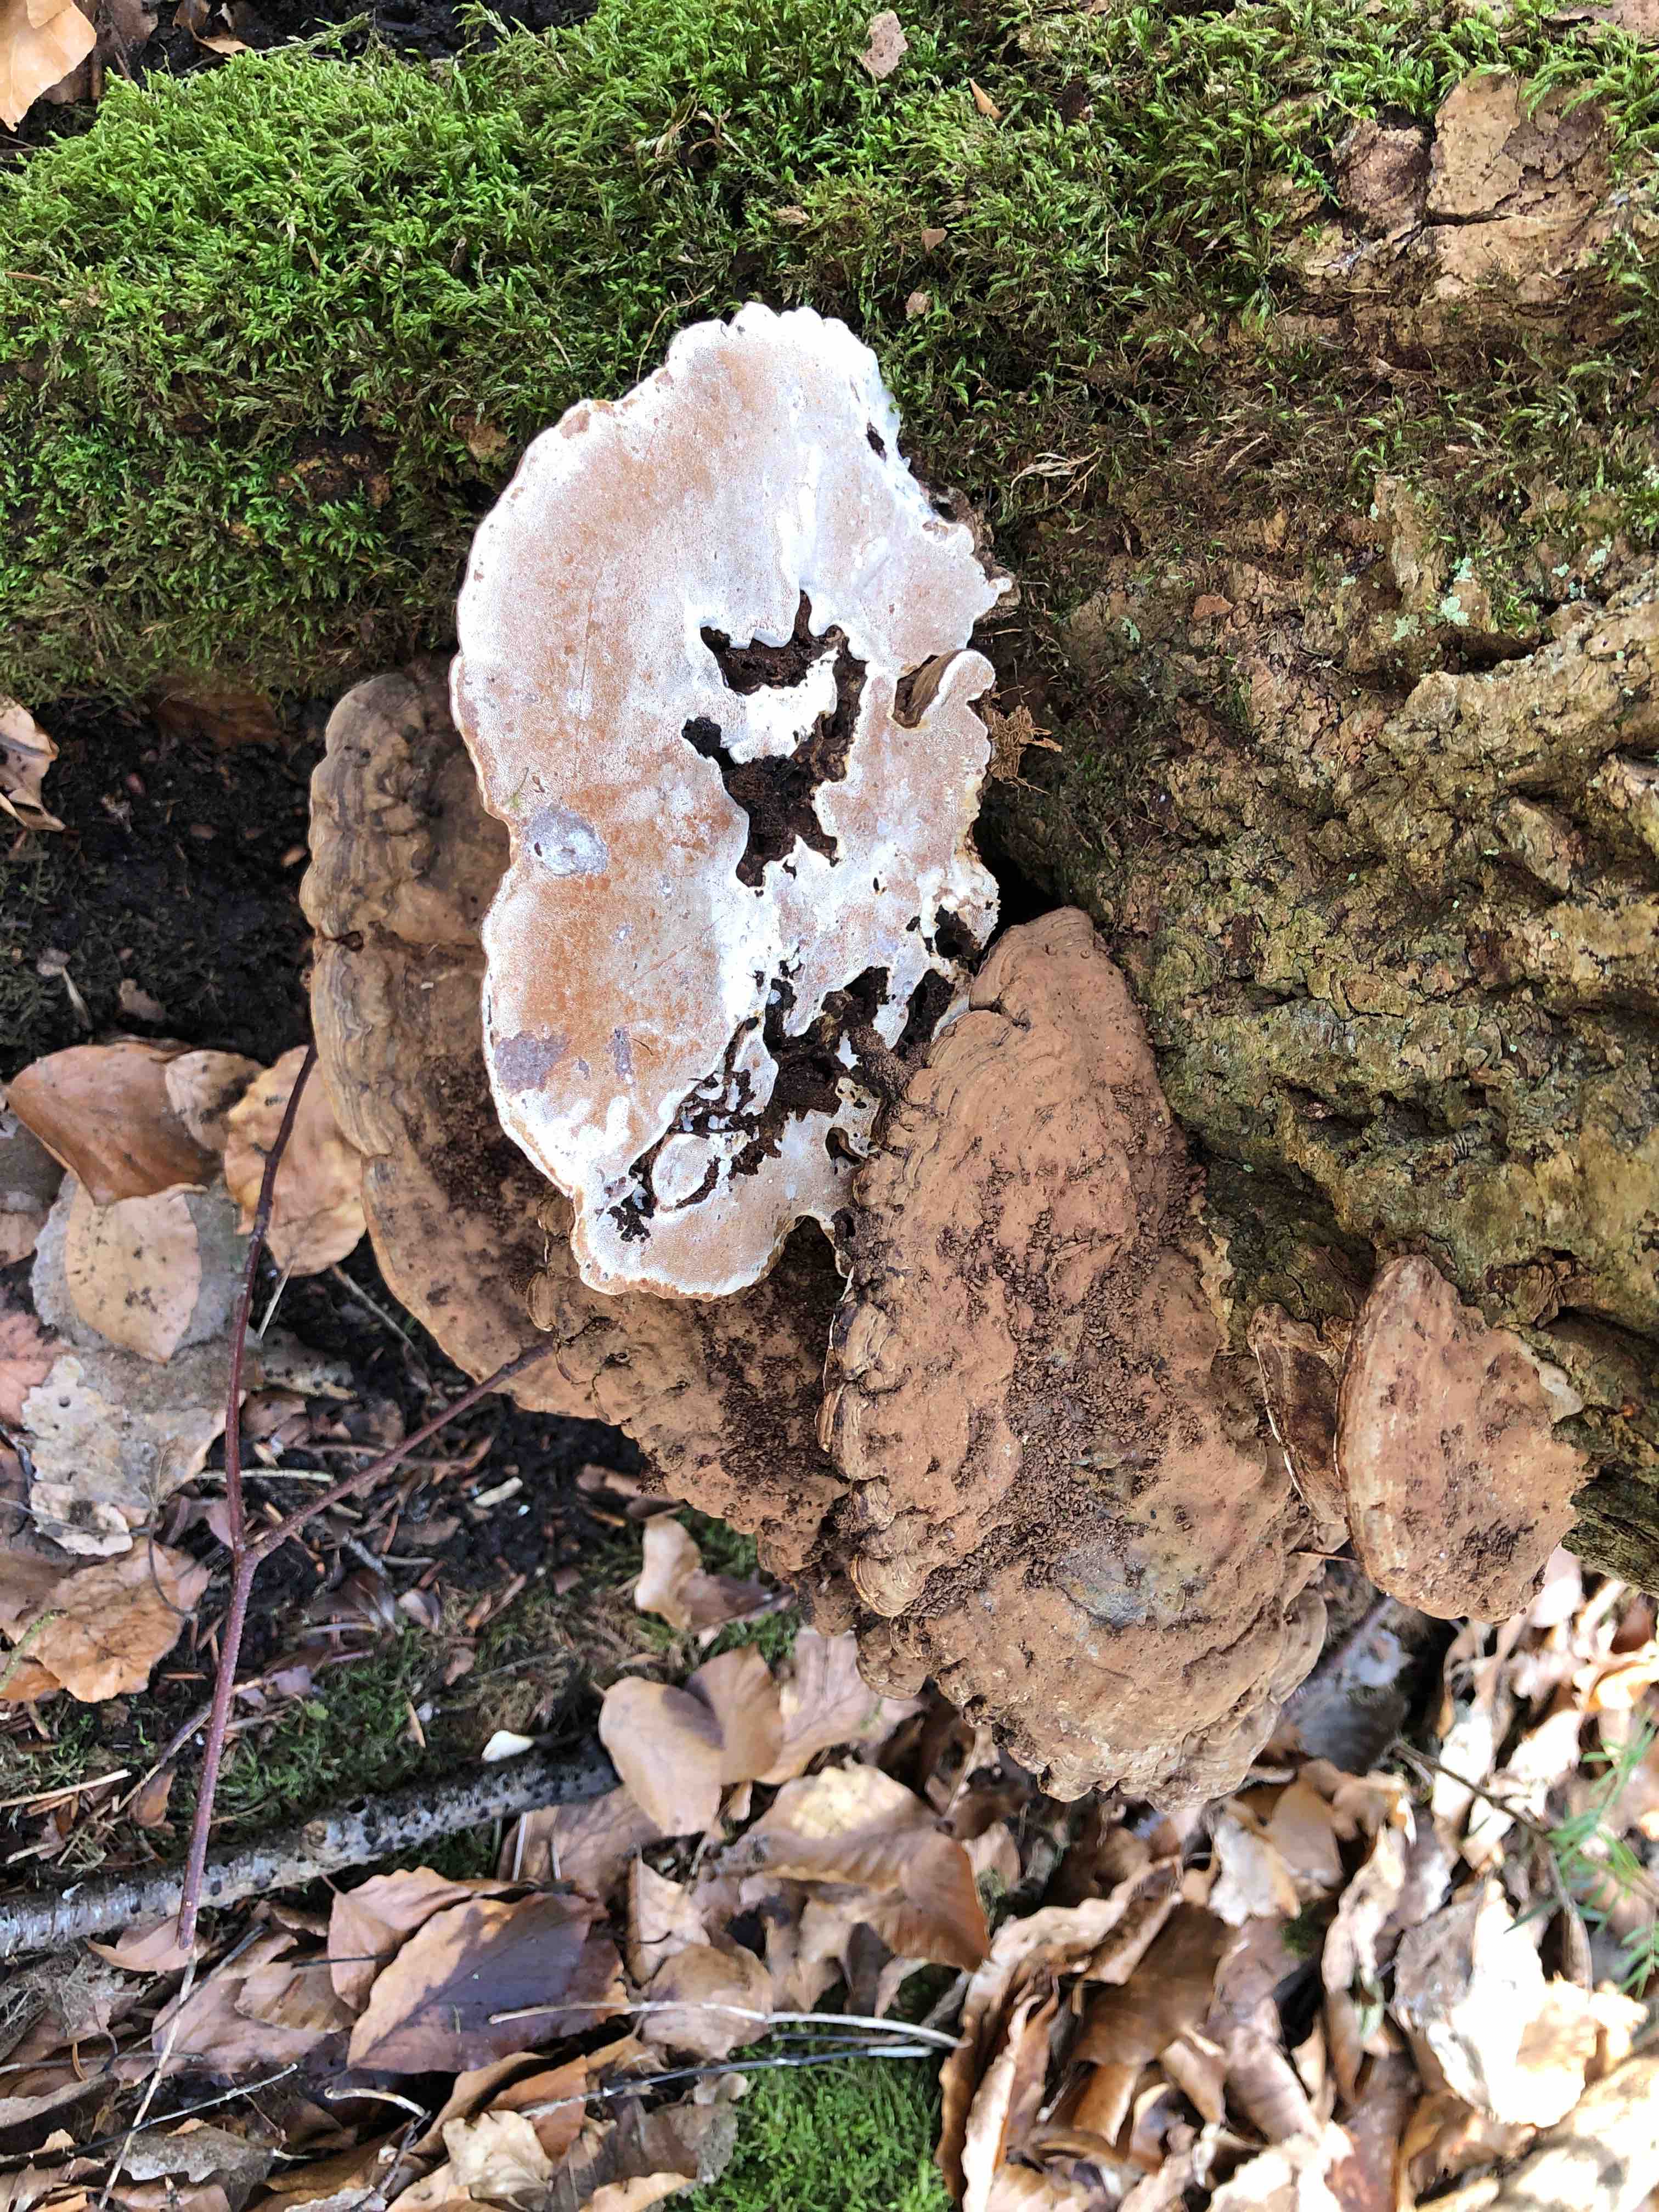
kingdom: Fungi
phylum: Basidiomycota
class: Agaricomycetes
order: Polyporales
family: Polyporaceae
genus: Ganoderma
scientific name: Ganoderma applanatum
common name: flad lakporesvamp
